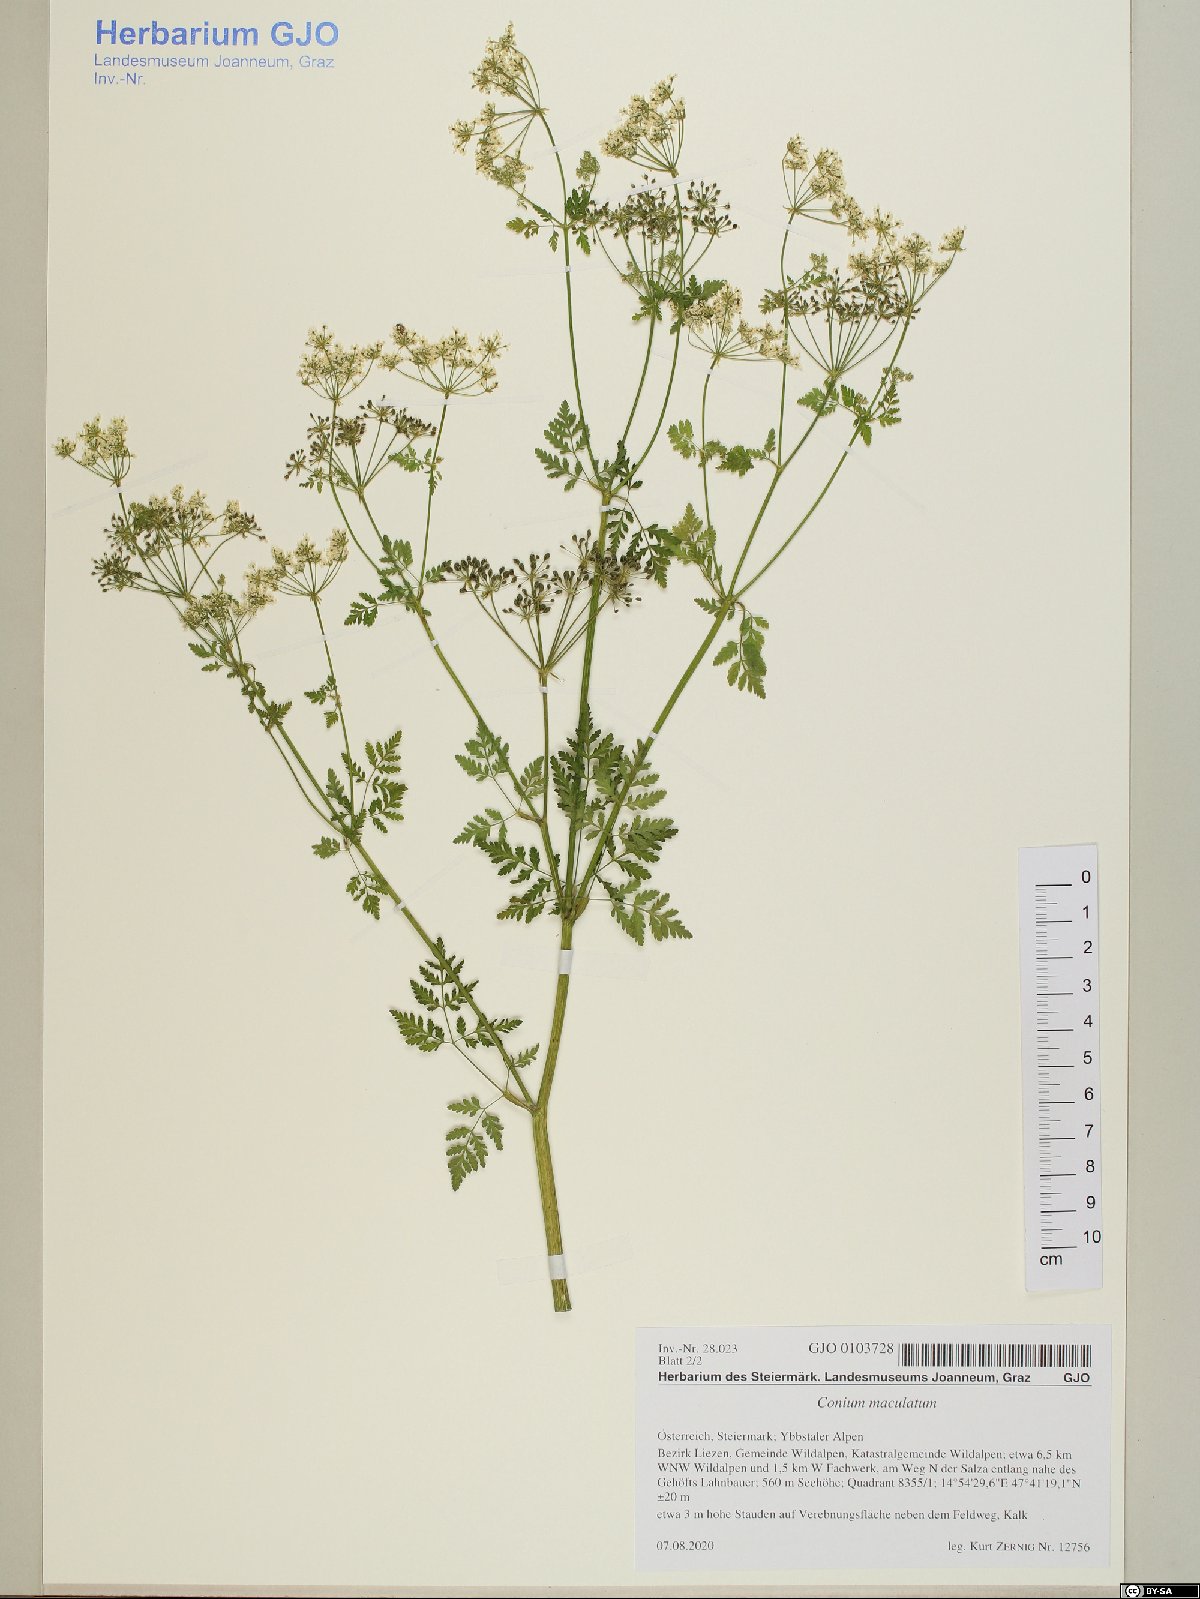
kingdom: Plantae
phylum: Tracheophyta
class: Magnoliopsida
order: Apiales
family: Apiaceae
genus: Conium
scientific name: Conium maculatum
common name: Hemlock
